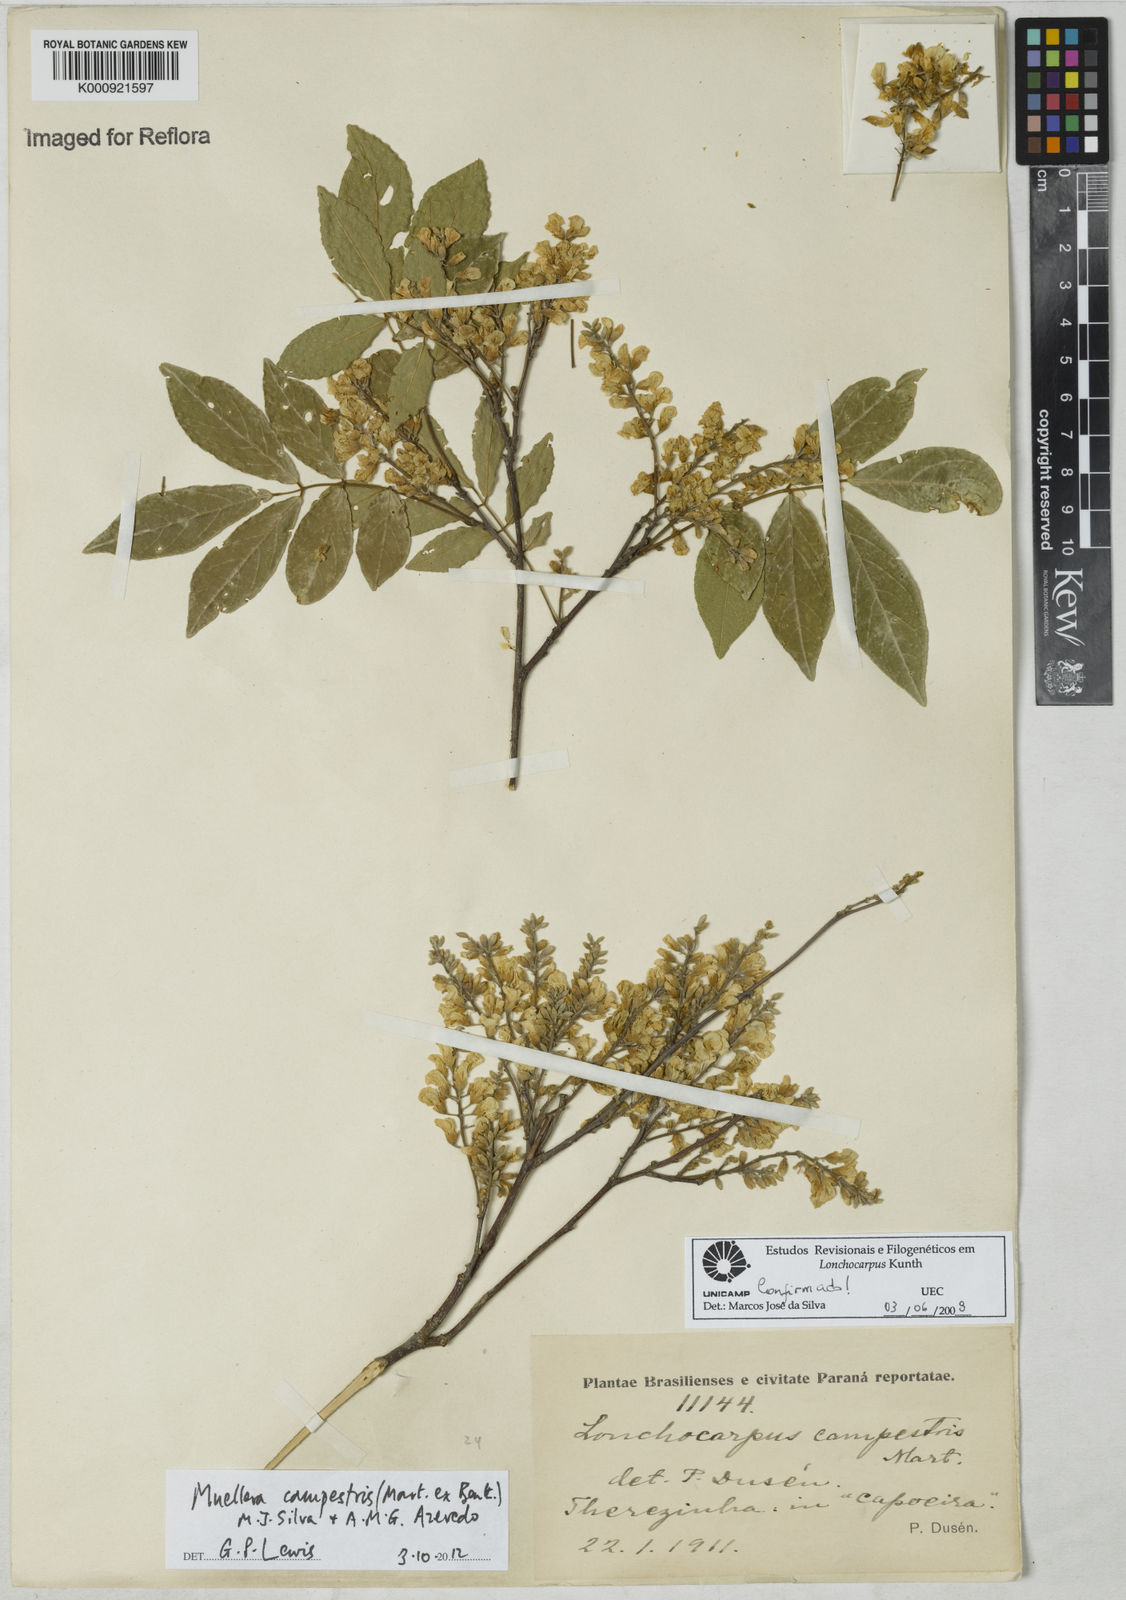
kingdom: Plantae
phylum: Tracheophyta
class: Magnoliopsida
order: Fabales
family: Fabaceae
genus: Muellera
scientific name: Muellera campestris
